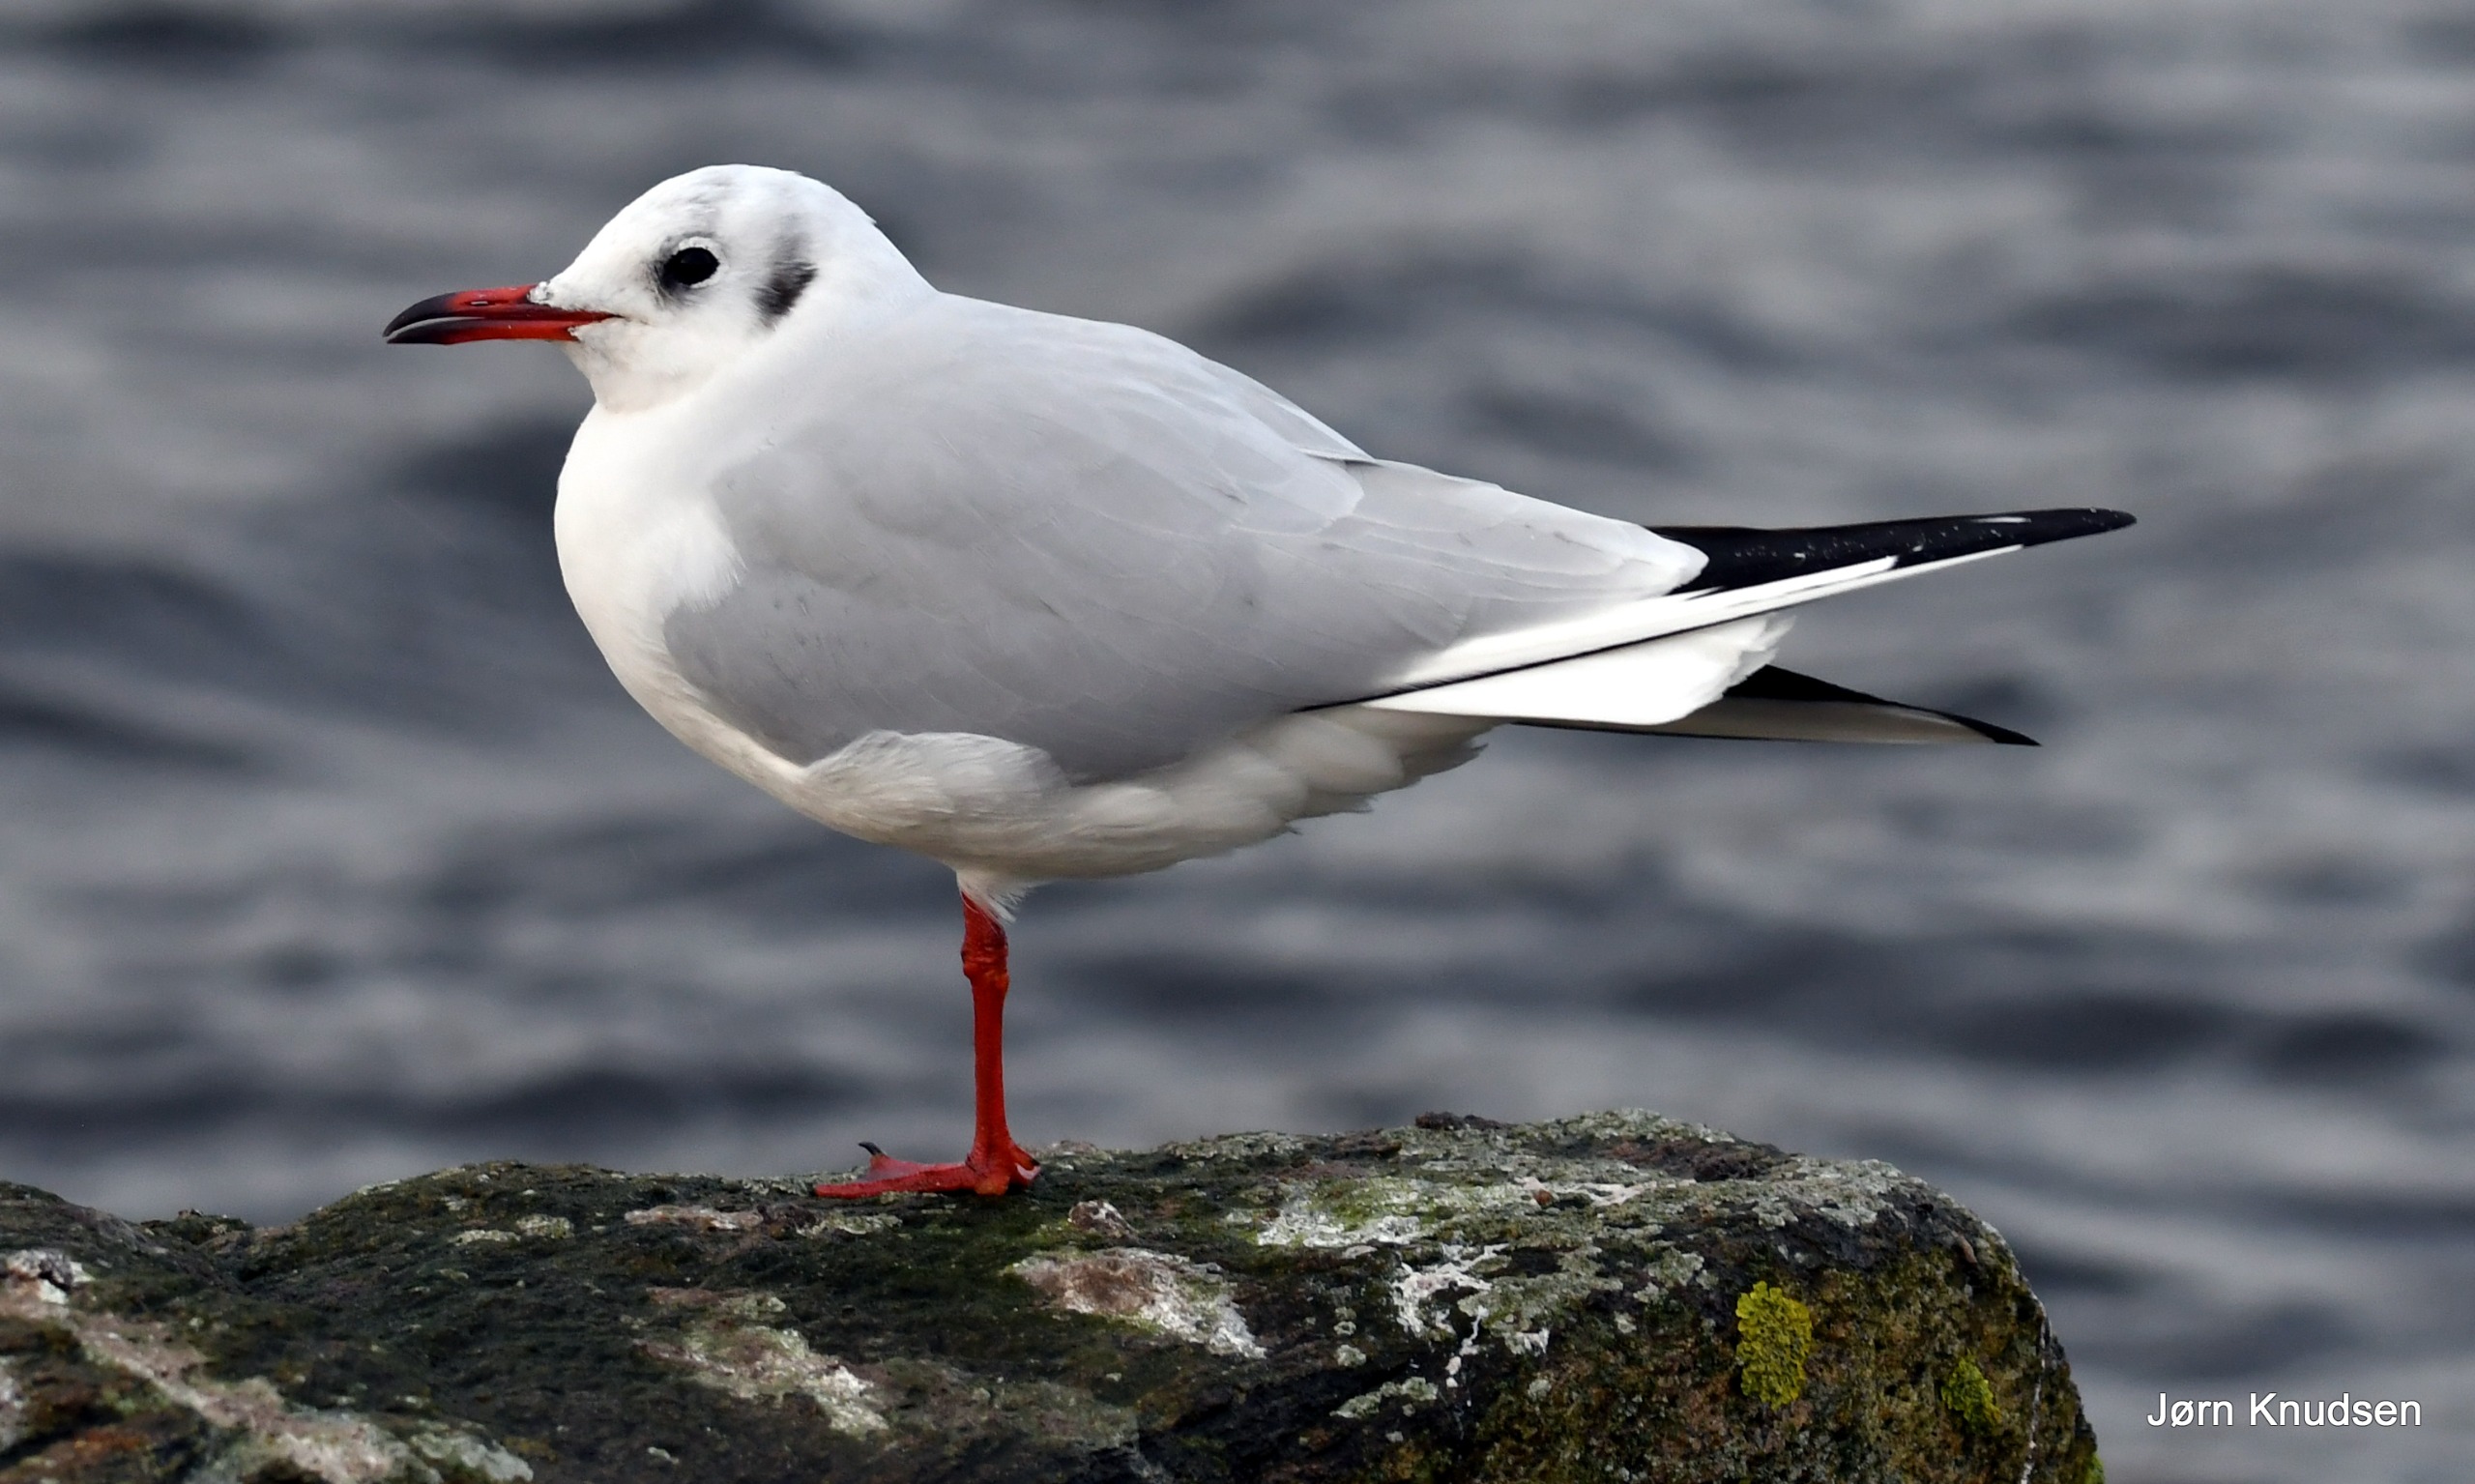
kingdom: Animalia
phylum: Chordata
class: Aves
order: Charadriiformes
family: Laridae
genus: Chroicocephalus
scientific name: Chroicocephalus ridibundus
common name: Hættemåge
